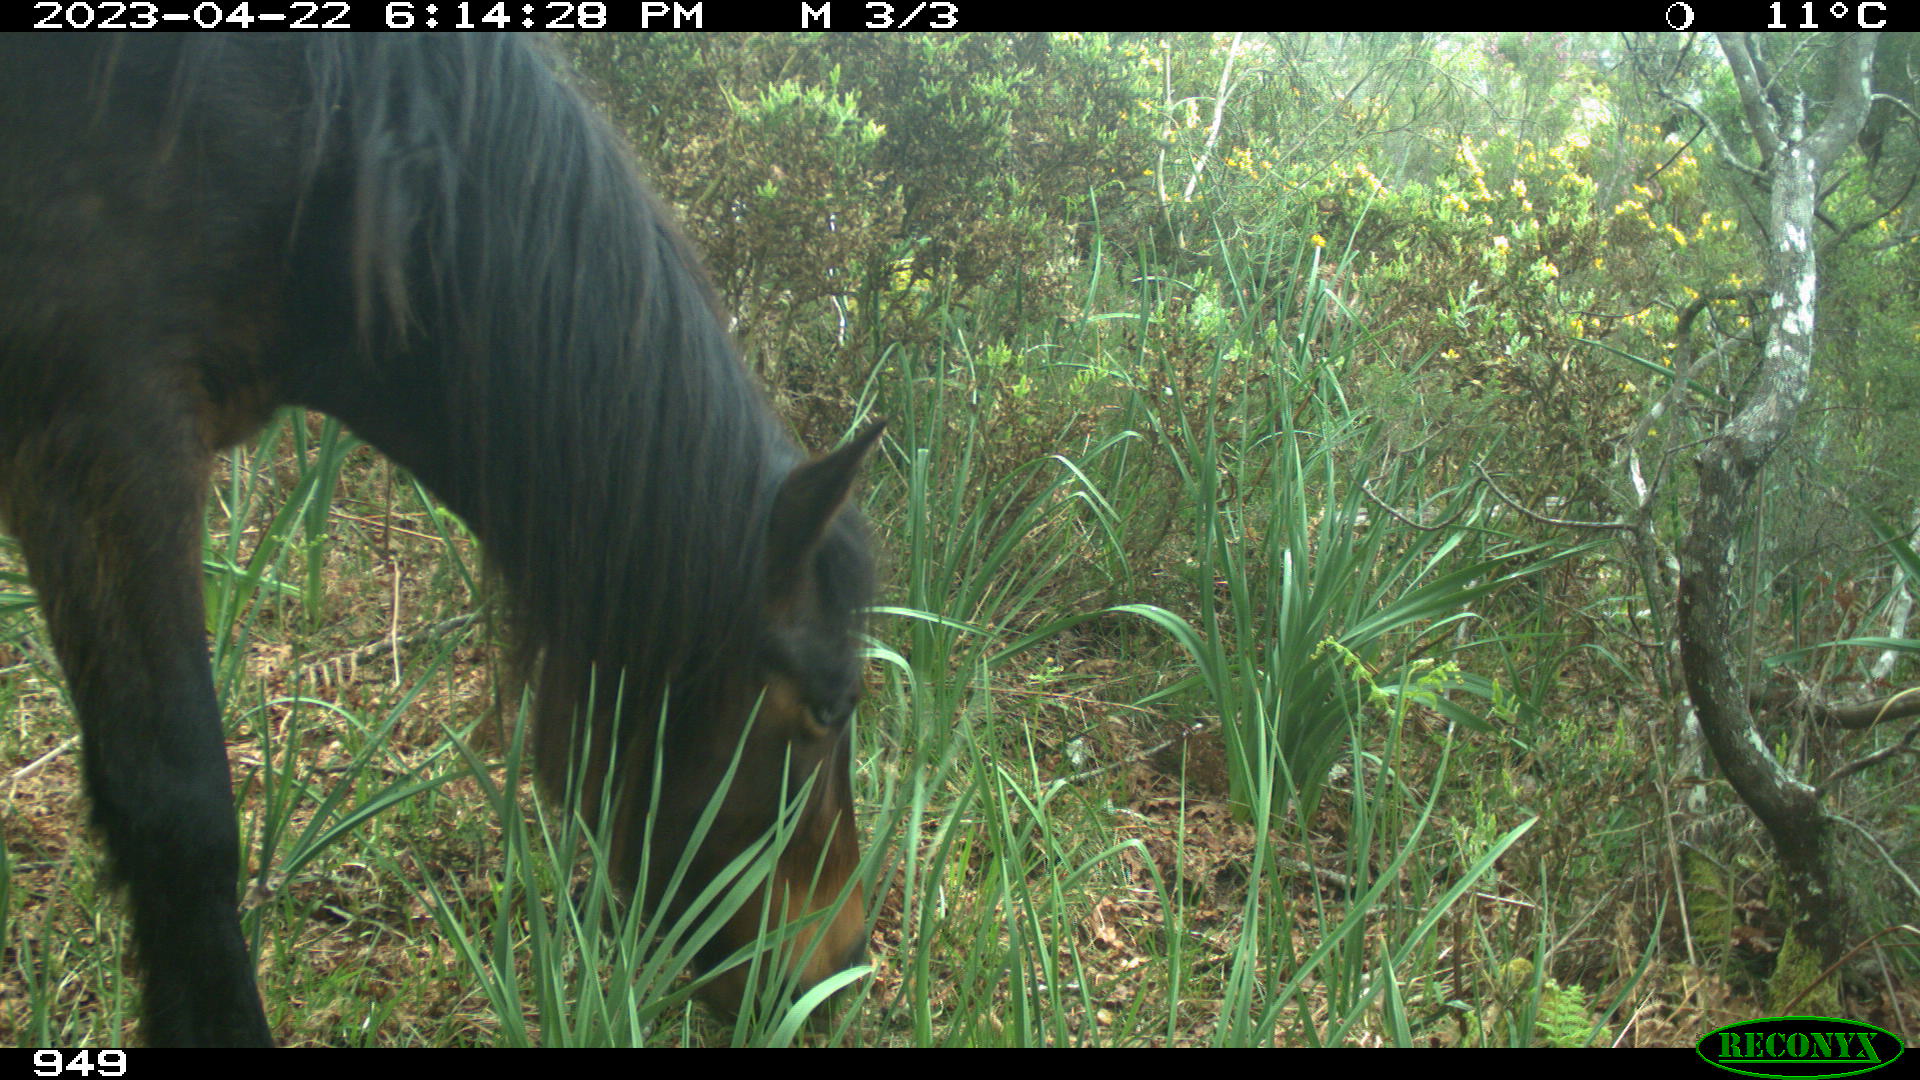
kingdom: Animalia
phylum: Chordata
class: Mammalia
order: Perissodactyla
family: Equidae
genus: Equus
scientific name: Equus caballus
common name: Horse
